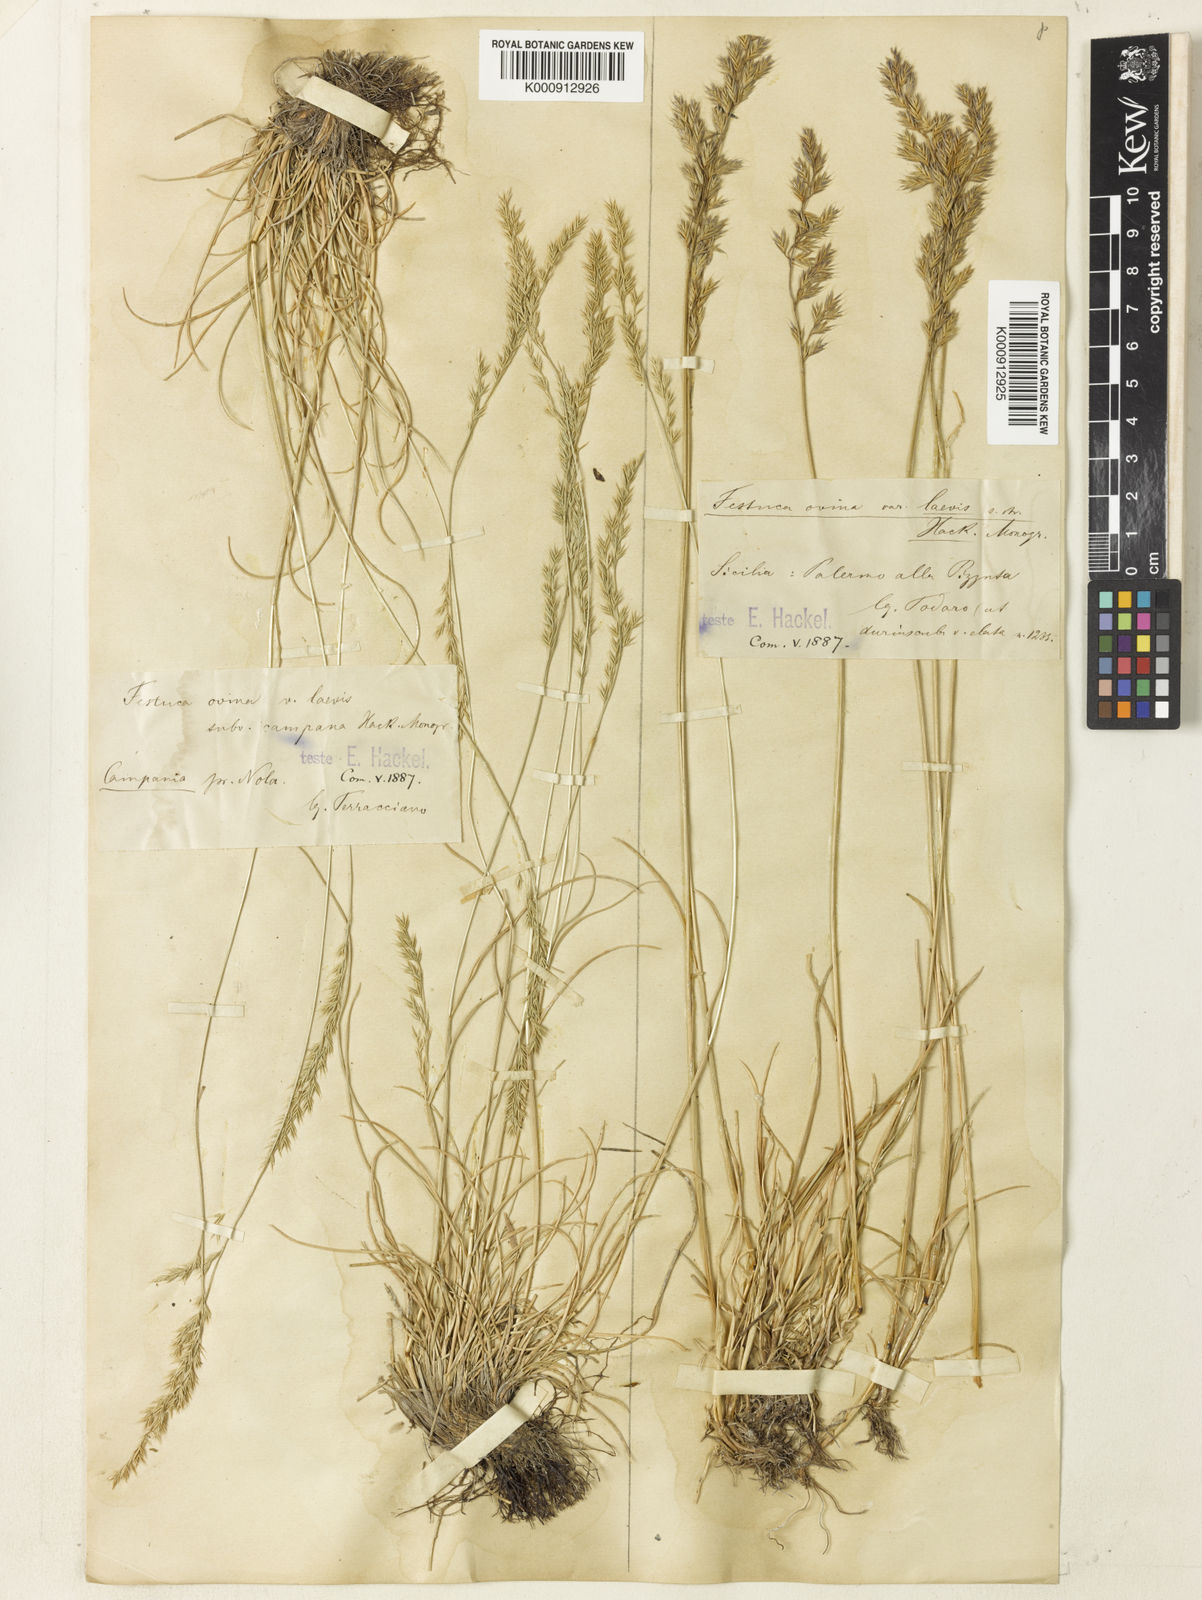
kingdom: Plantae
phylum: Tracheophyta
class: Liliopsida
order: Poales
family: Poaceae
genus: Festuca
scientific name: Festuca jeanpertii
